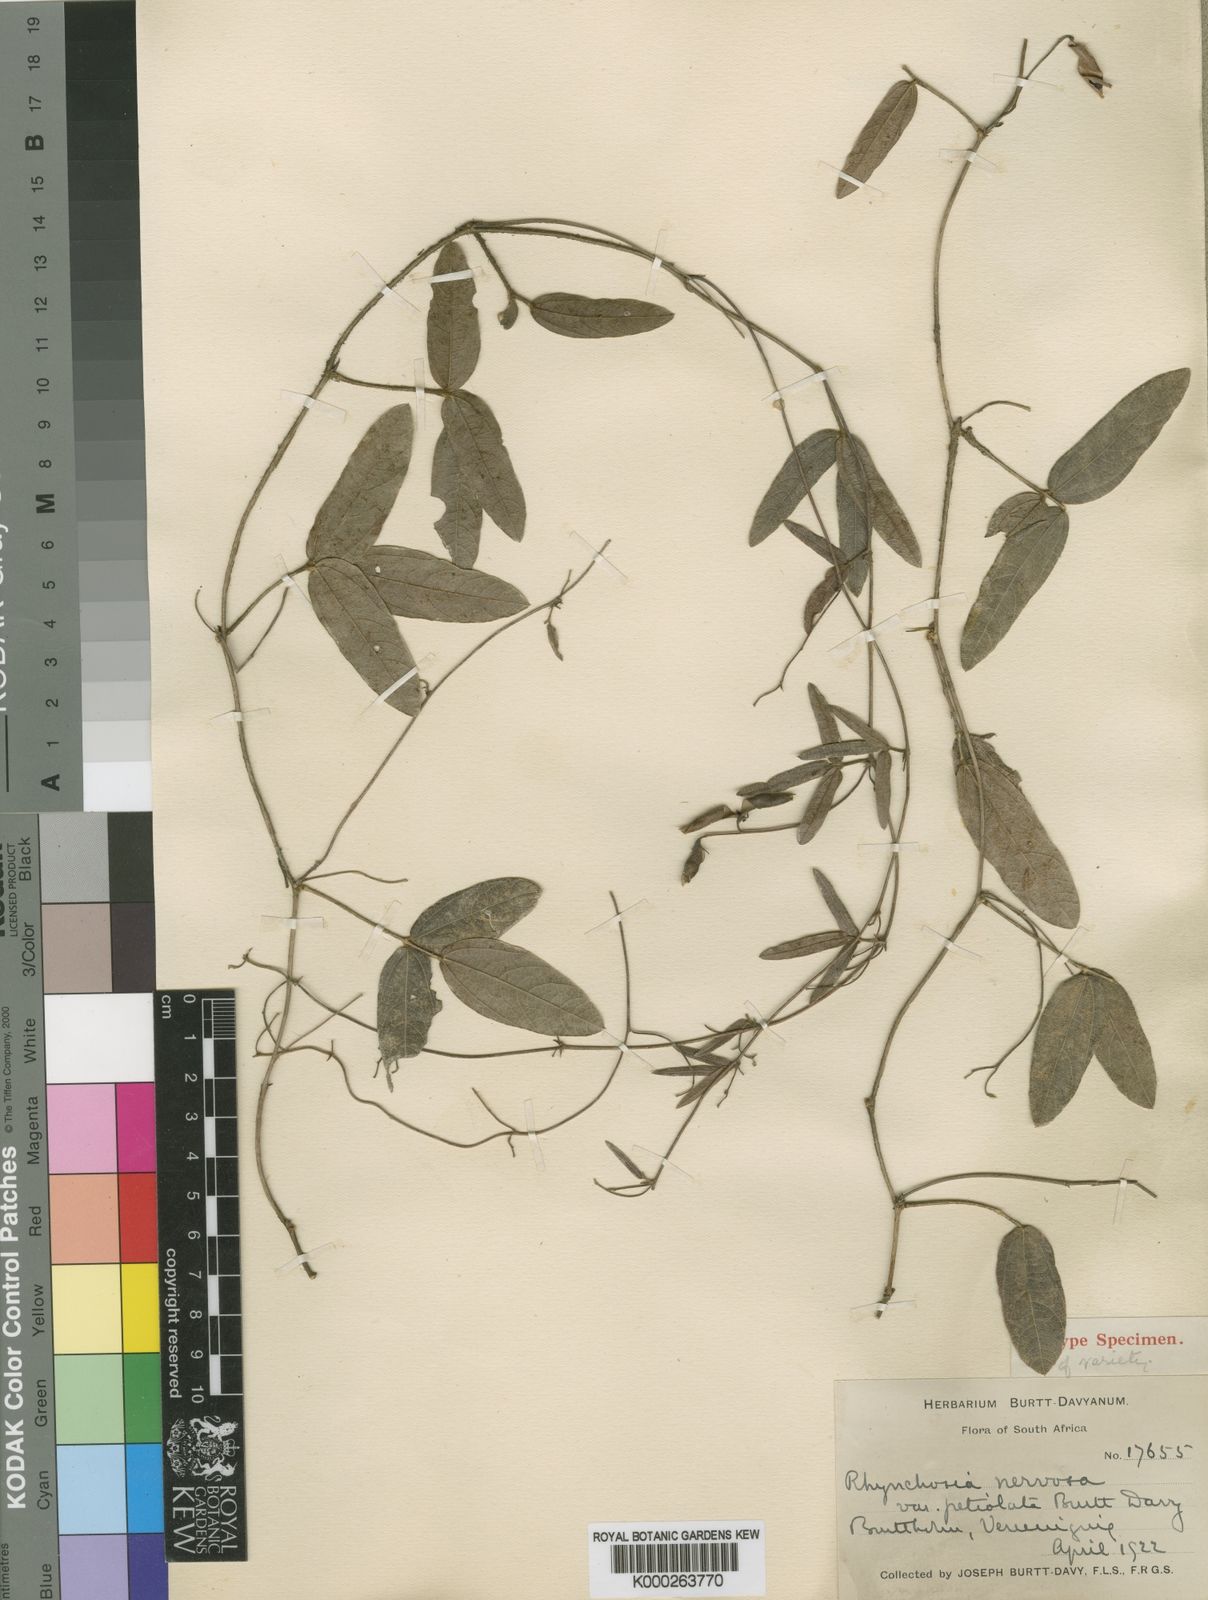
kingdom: Plantae
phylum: Tracheophyta
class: Magnoliopsida
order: Fabales
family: Fabaceae
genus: Rhynchosia
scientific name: Rhynchosia nervosa
